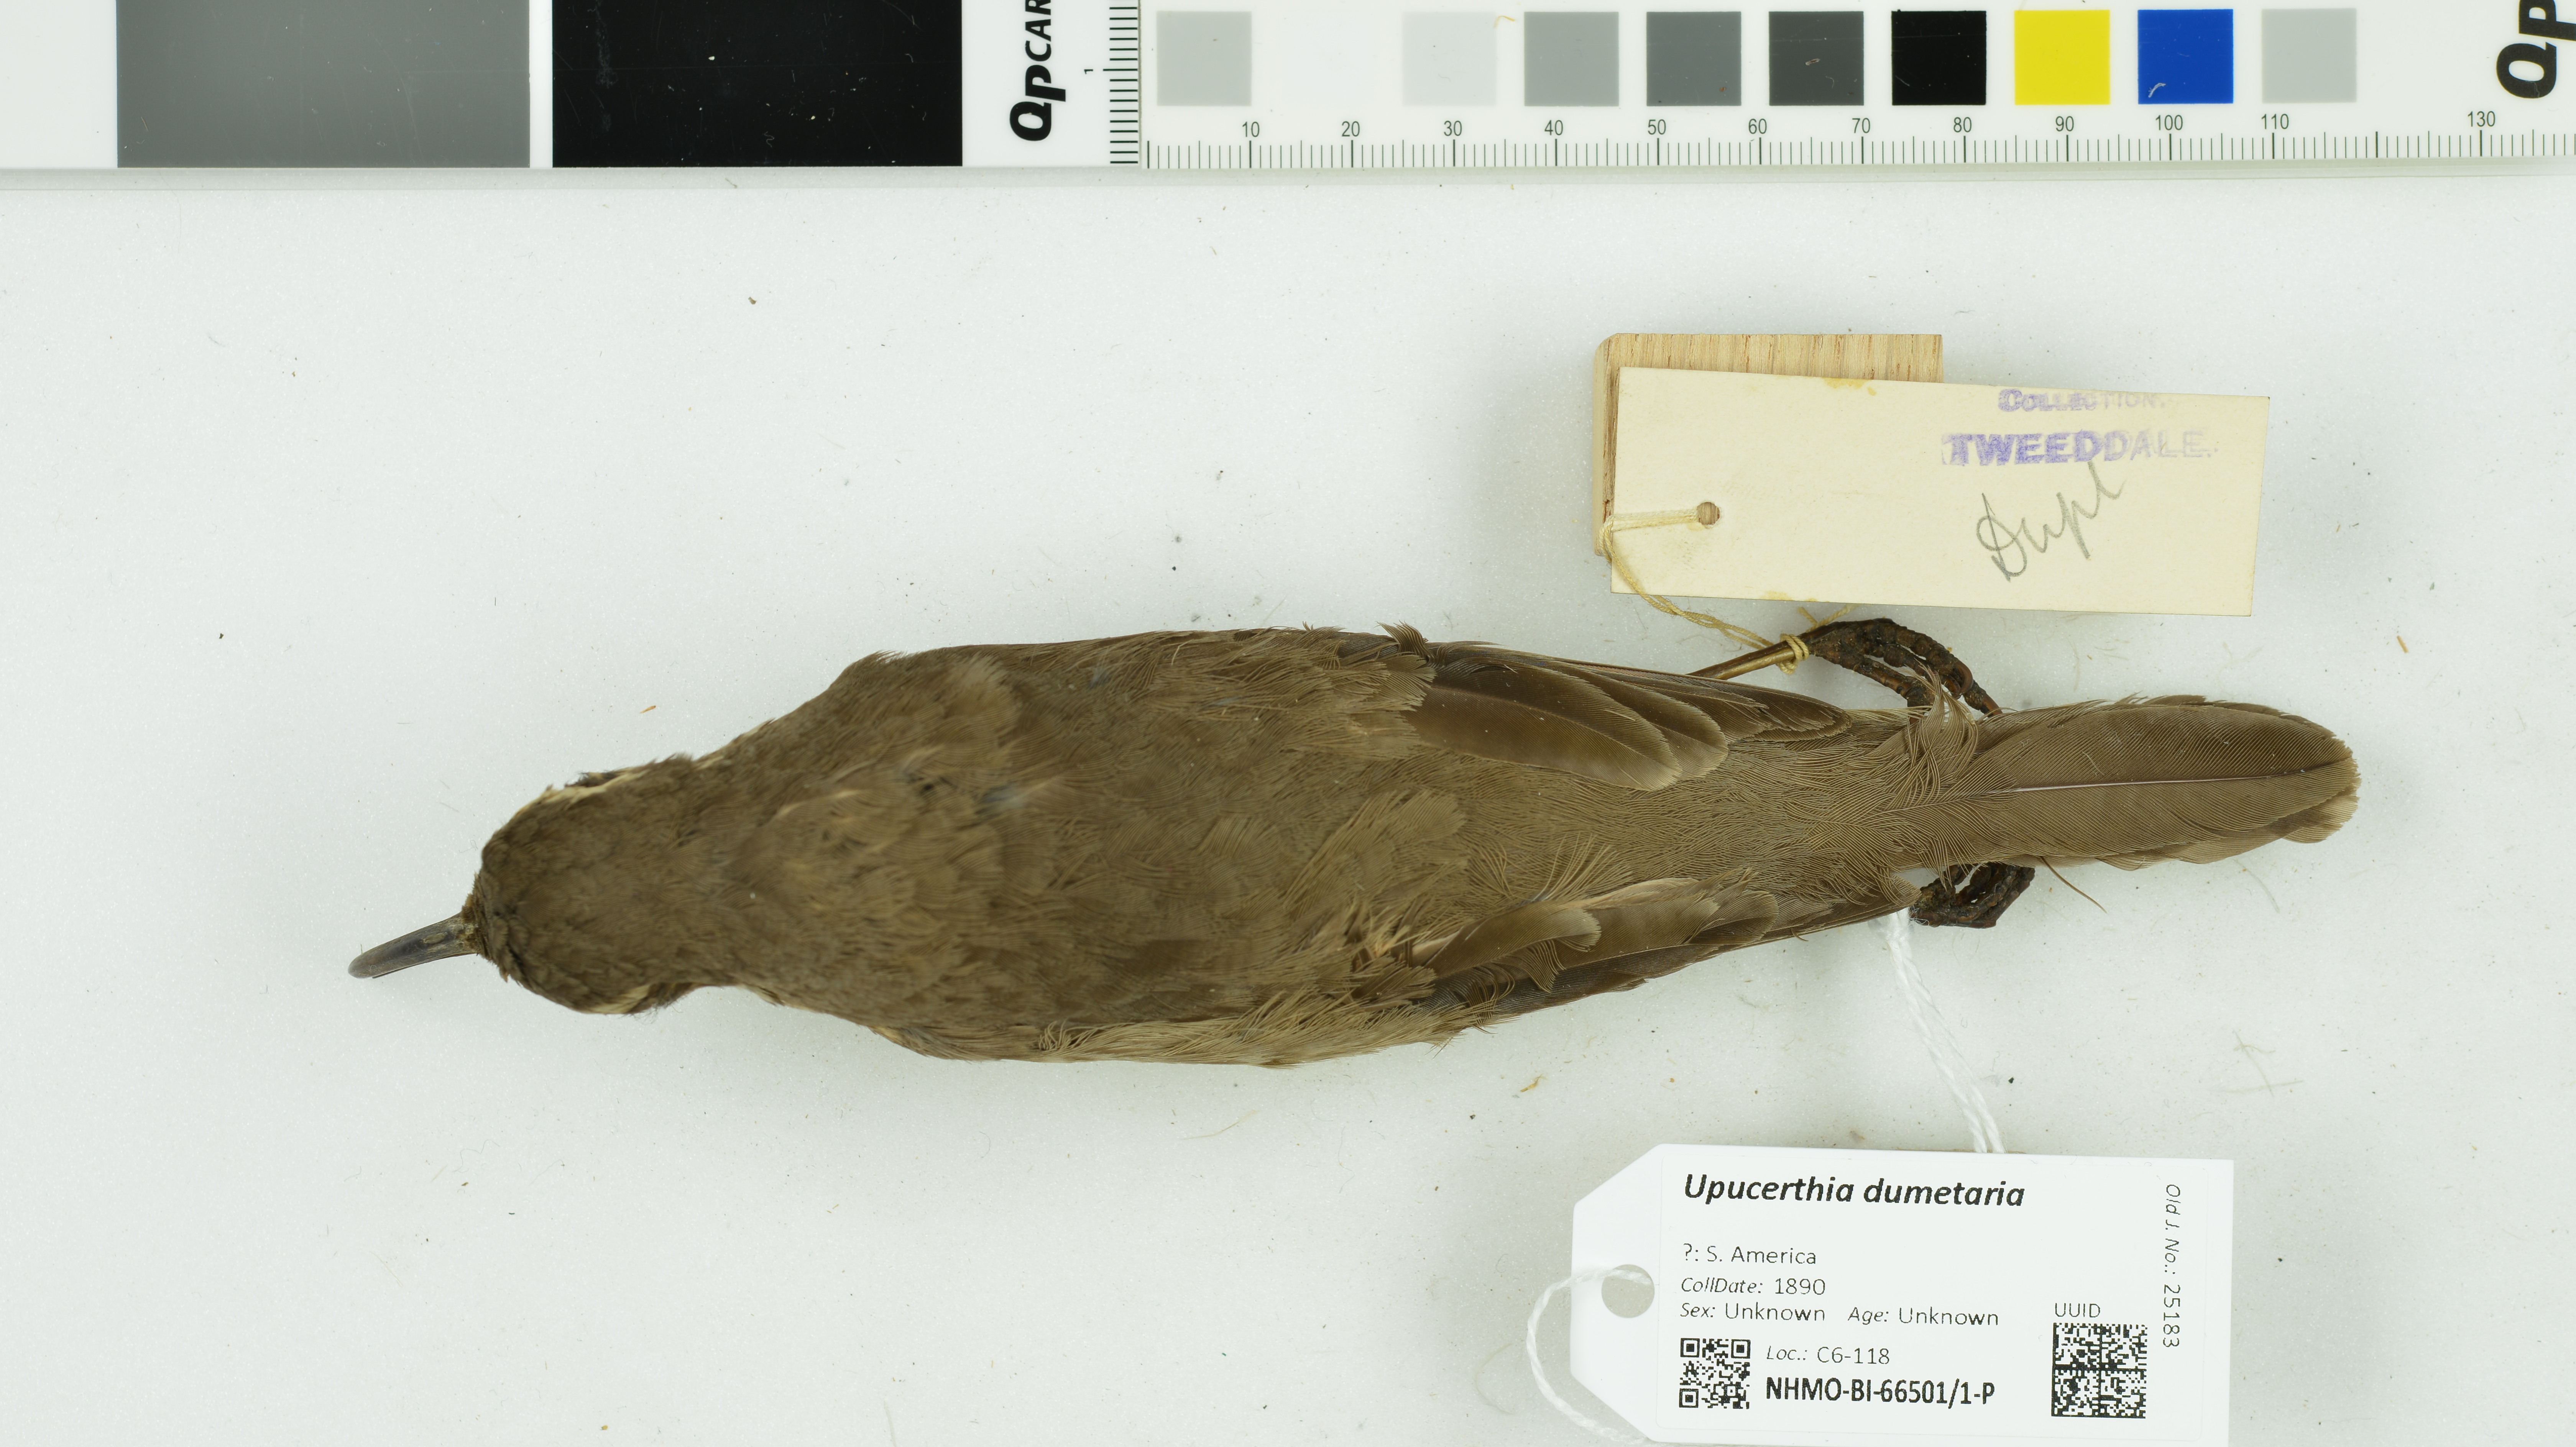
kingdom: Animalia
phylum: Chordata
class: Aves
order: Passeriformes
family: Furnariidae
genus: Upucerthia
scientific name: Upucerthia dumetaria
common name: Scale-throated earthcreeper
